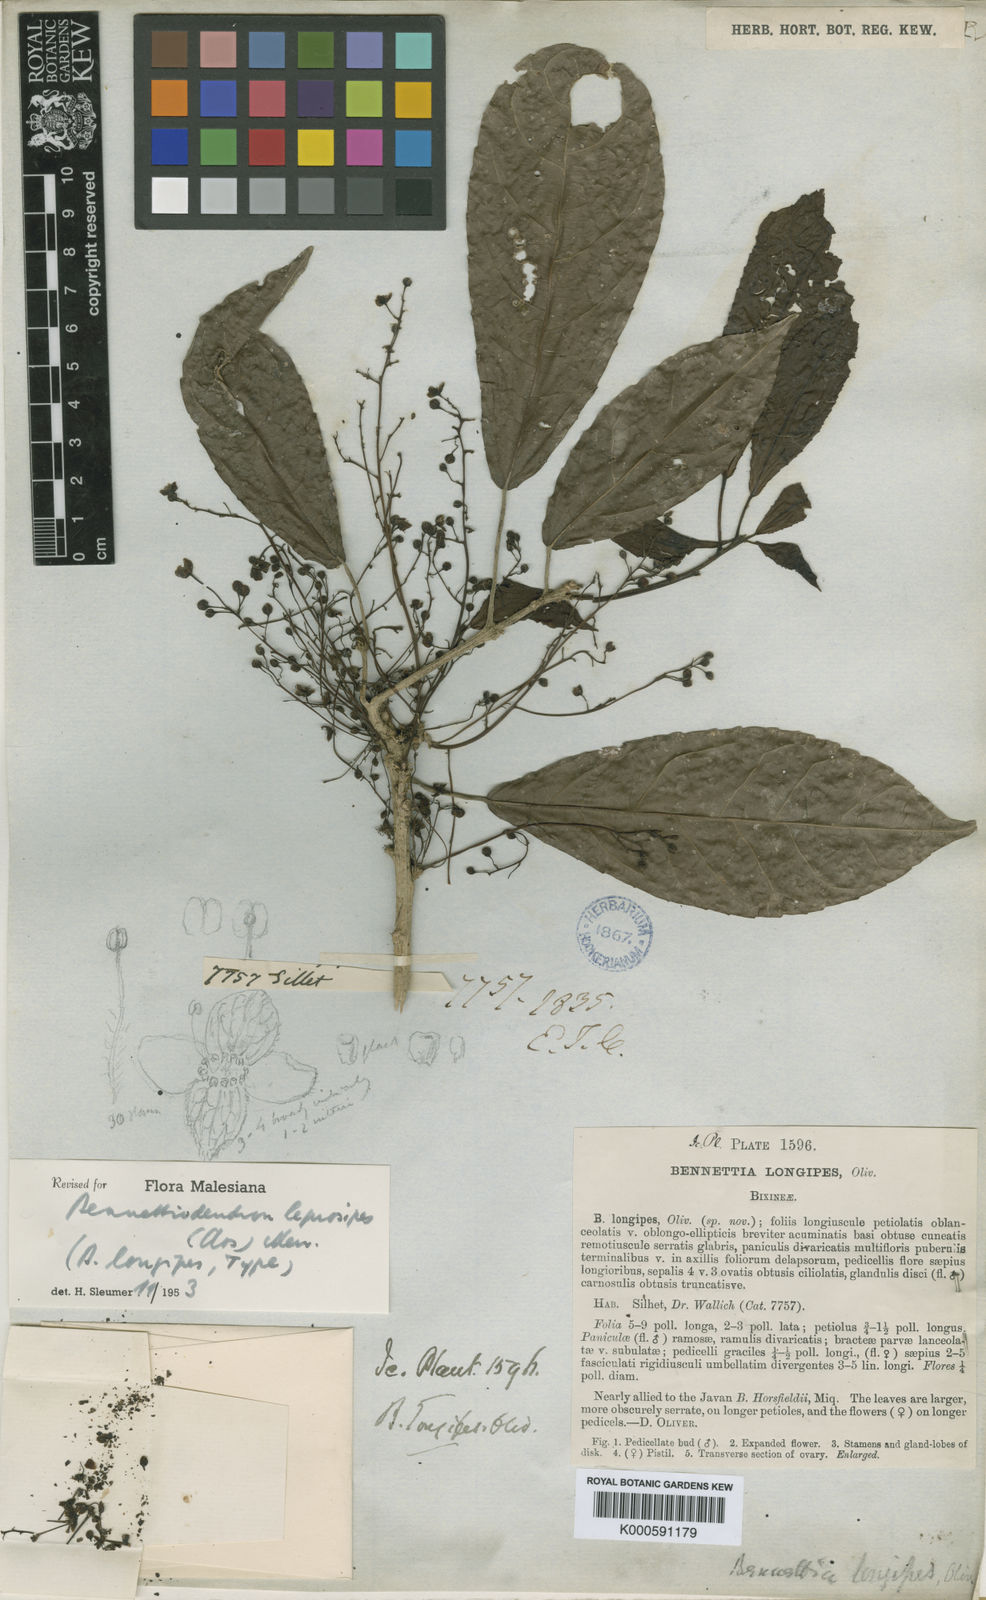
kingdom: Plantae
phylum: Tracheophyta
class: Magnoliopsida
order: Malpighiales
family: Salicaceae
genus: Bennettiodendron
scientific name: Bennettiodendron leprosipes
